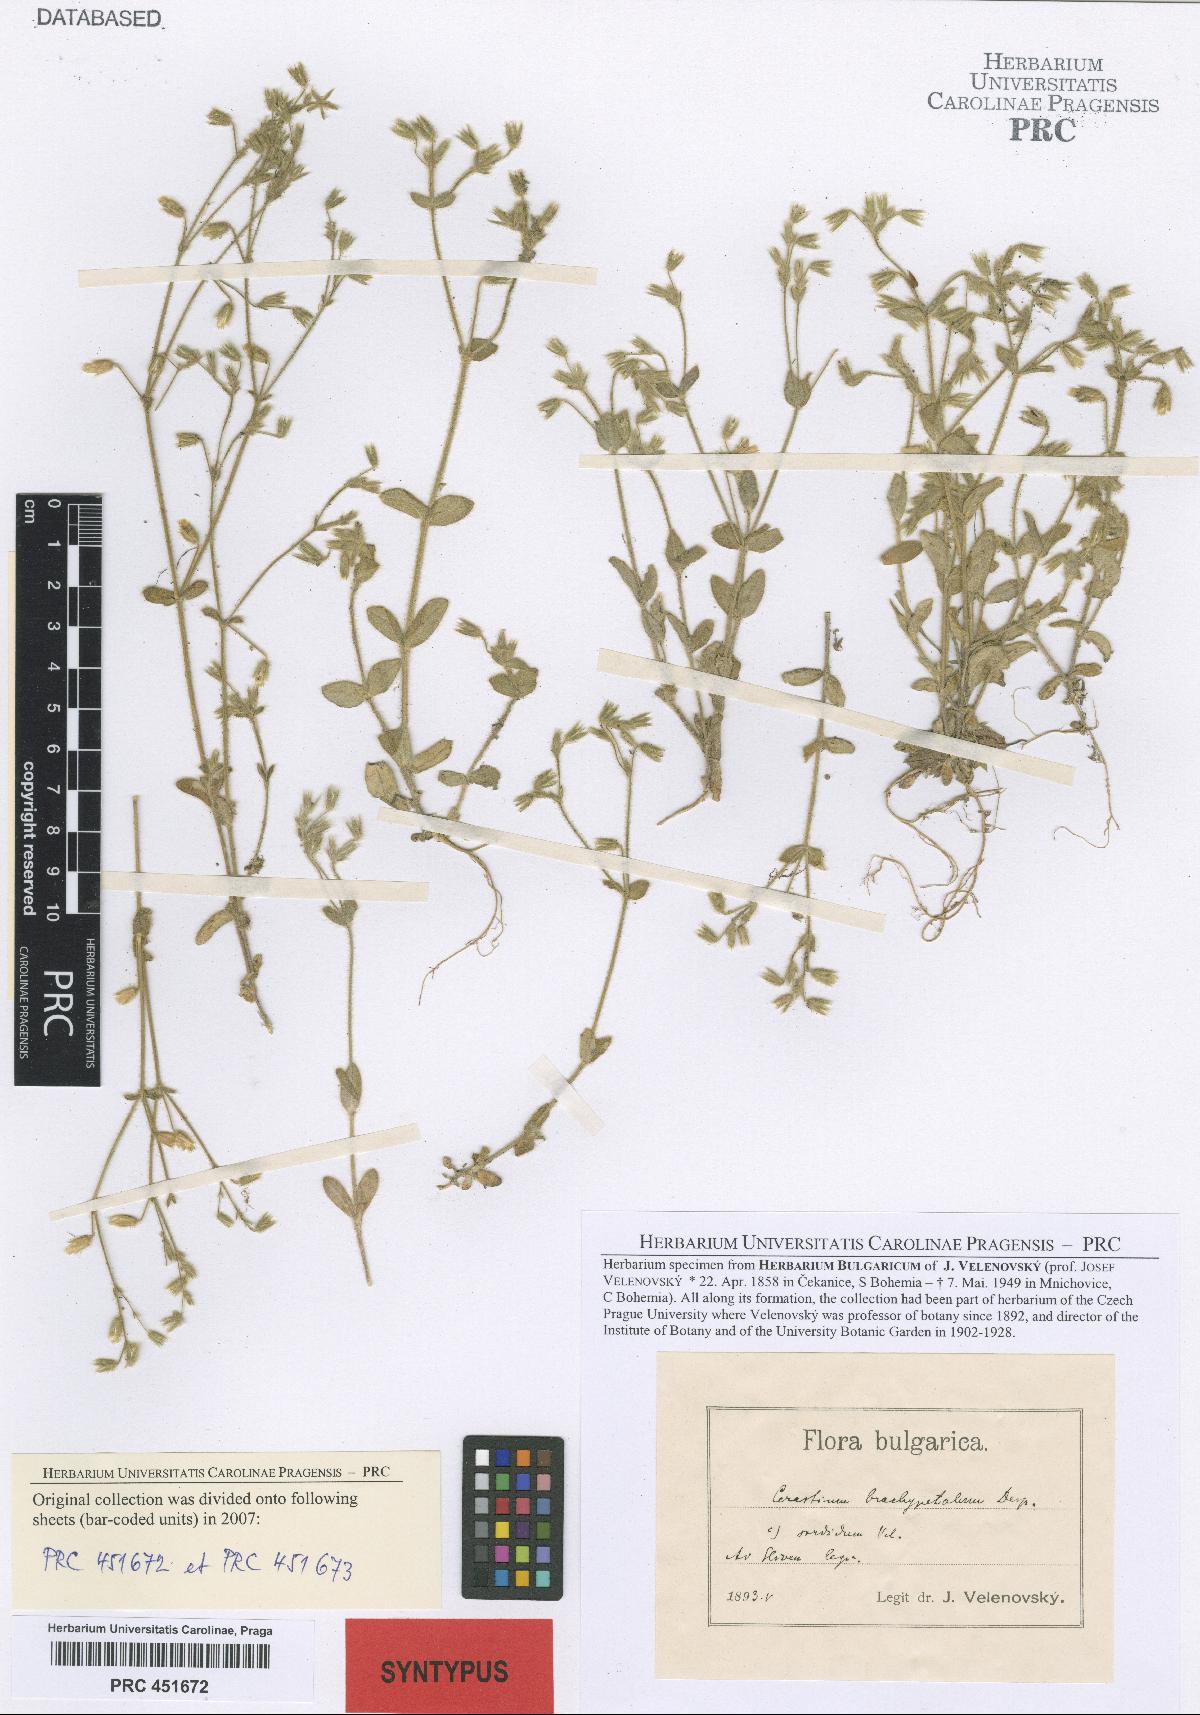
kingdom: Plantae
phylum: Tracheophyta
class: Magnoliopsida
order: Caryophyllales
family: Caryophyllaceae
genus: Cerastium
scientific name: Cerastium brachypetalum
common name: Grey mouse-ear
